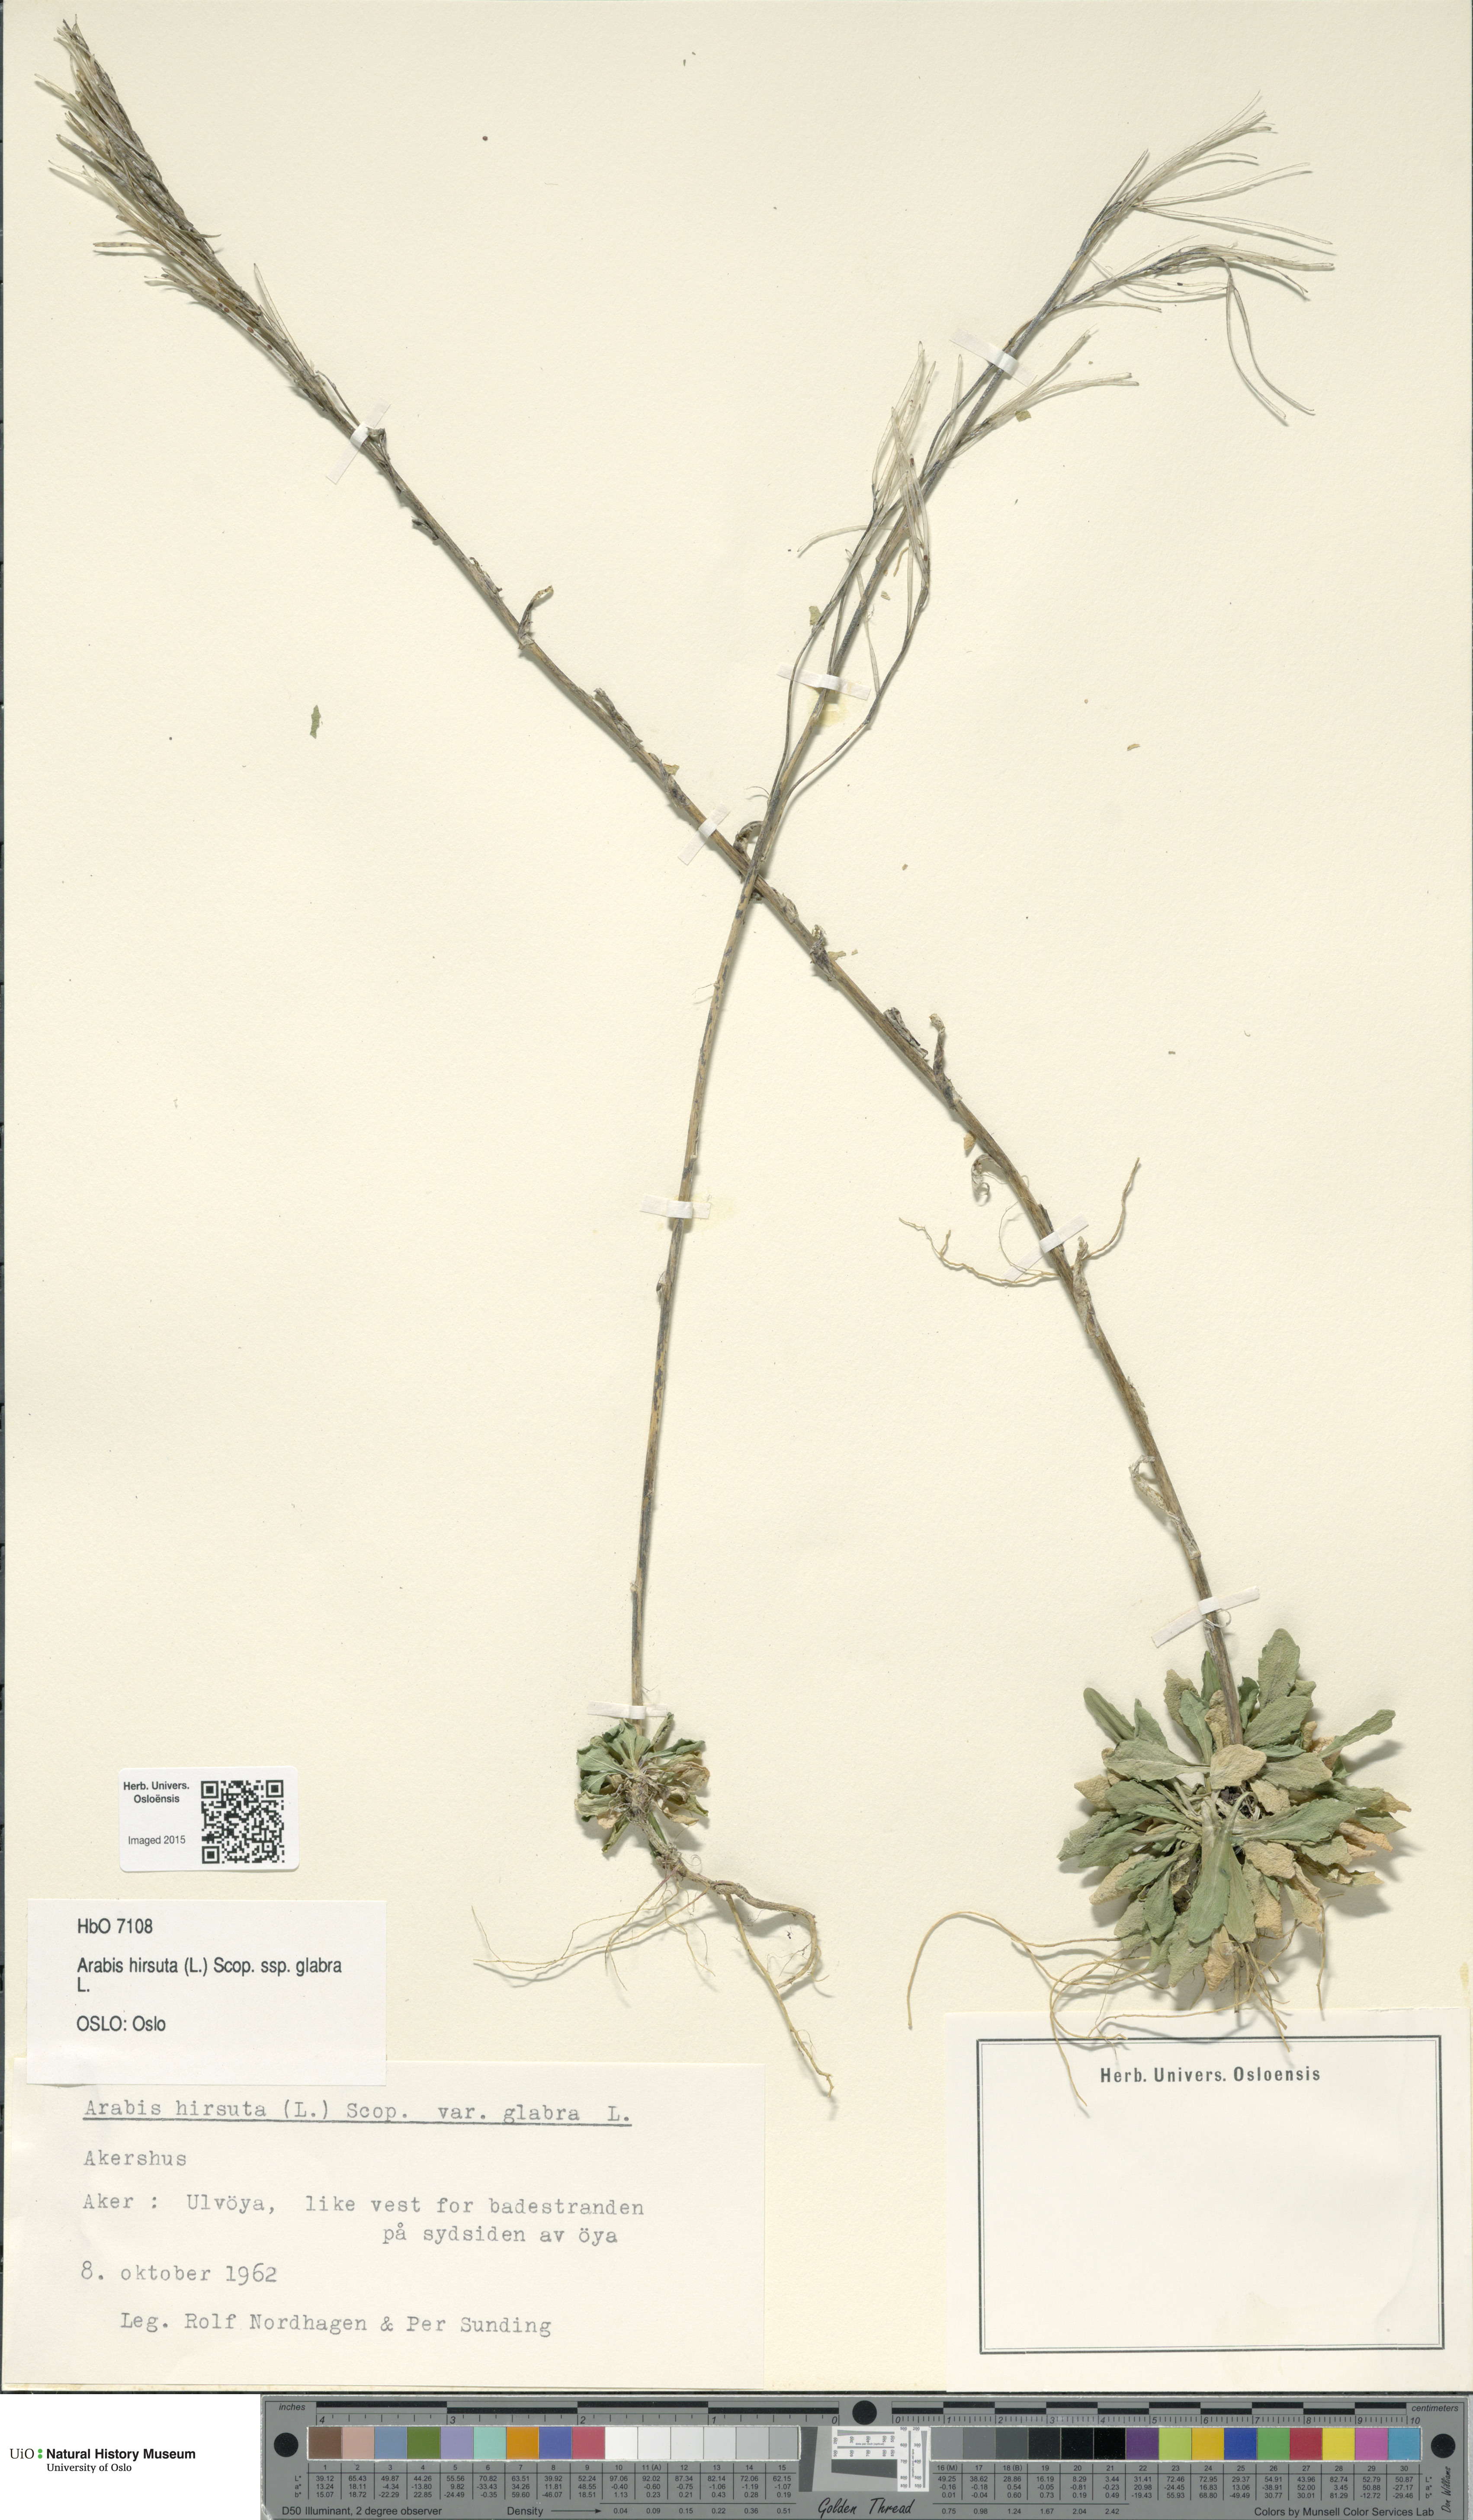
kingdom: Plantae
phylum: Tracheophyta
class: Magnoliopsida
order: Brassicales
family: Brassicaceae
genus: Arabis
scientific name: Arabis hirsuta
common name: Hairy rock-cress
